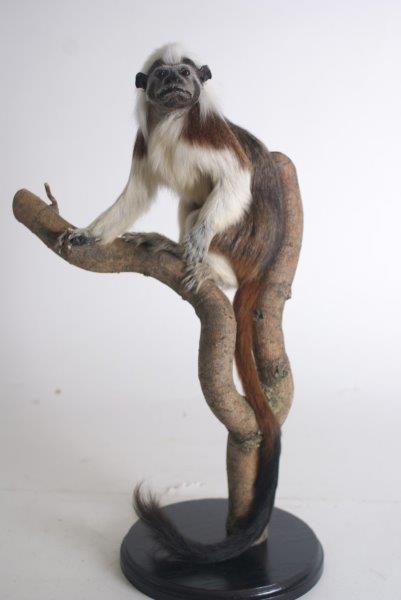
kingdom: Animalia
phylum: Chordata
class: Mammalia
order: Primates
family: Callitrichidae
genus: Saguinus
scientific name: Saguinus oedipus
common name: Cottontop Tamarin
